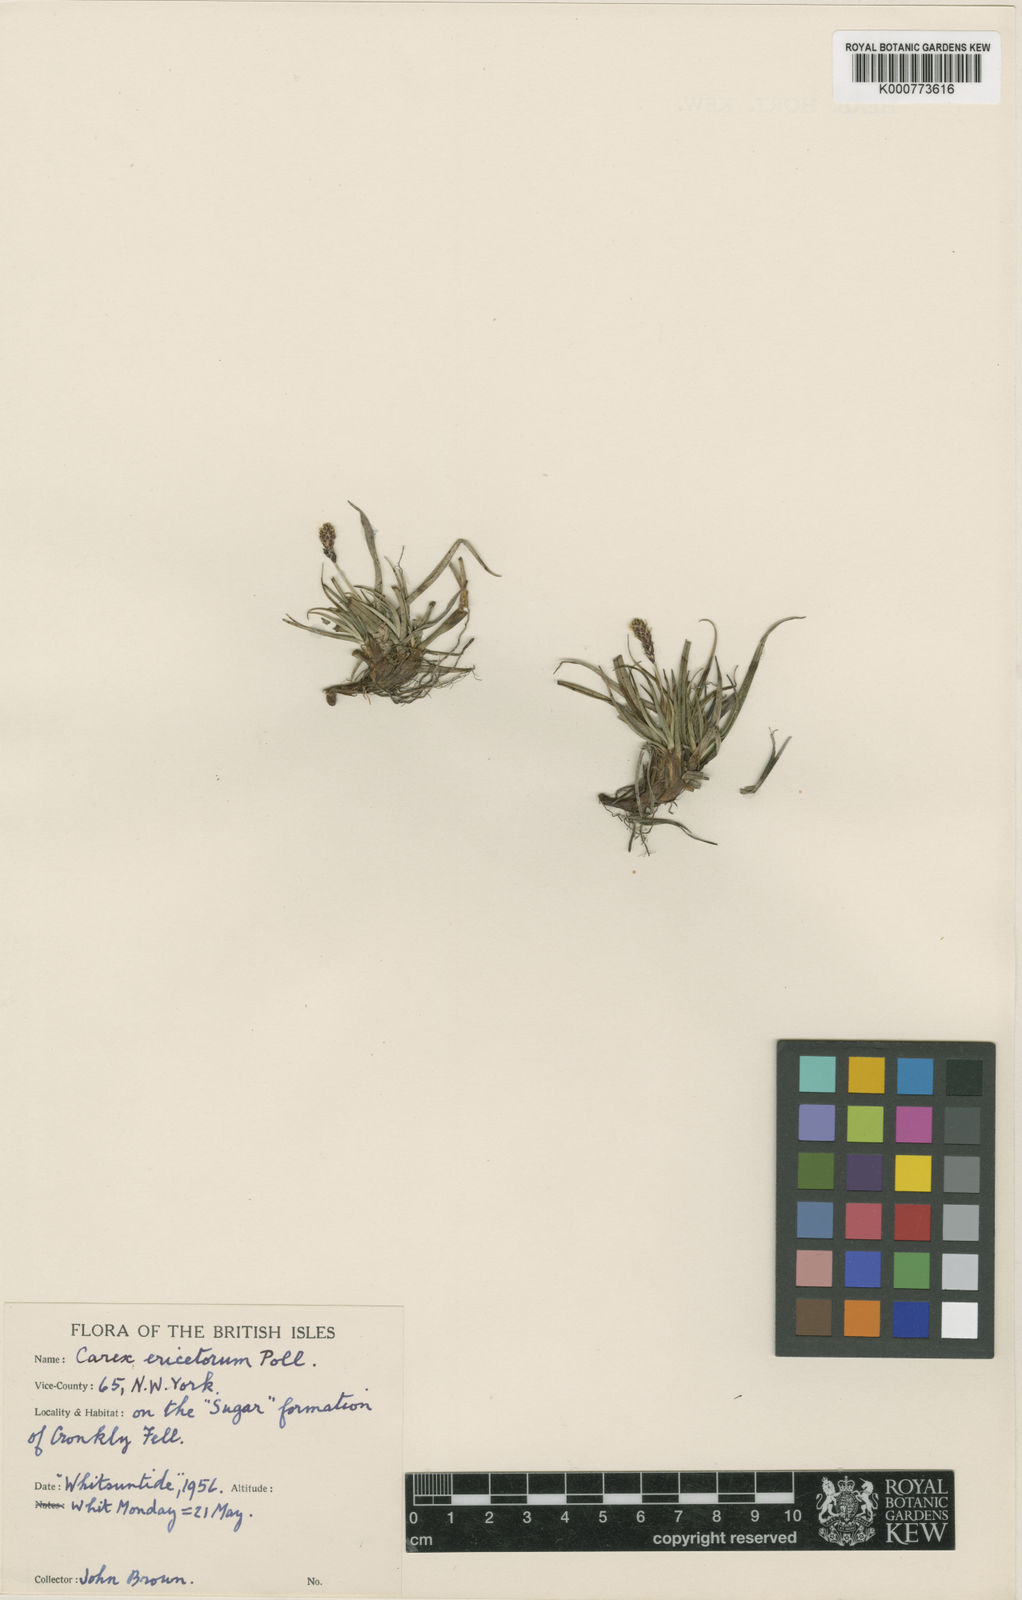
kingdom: Plantae
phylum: Tracheophyta
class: Liliopsida
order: Poales
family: Cyperaceae
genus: Carex
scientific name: Carex ericetorum
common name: Rare spring-sedge
